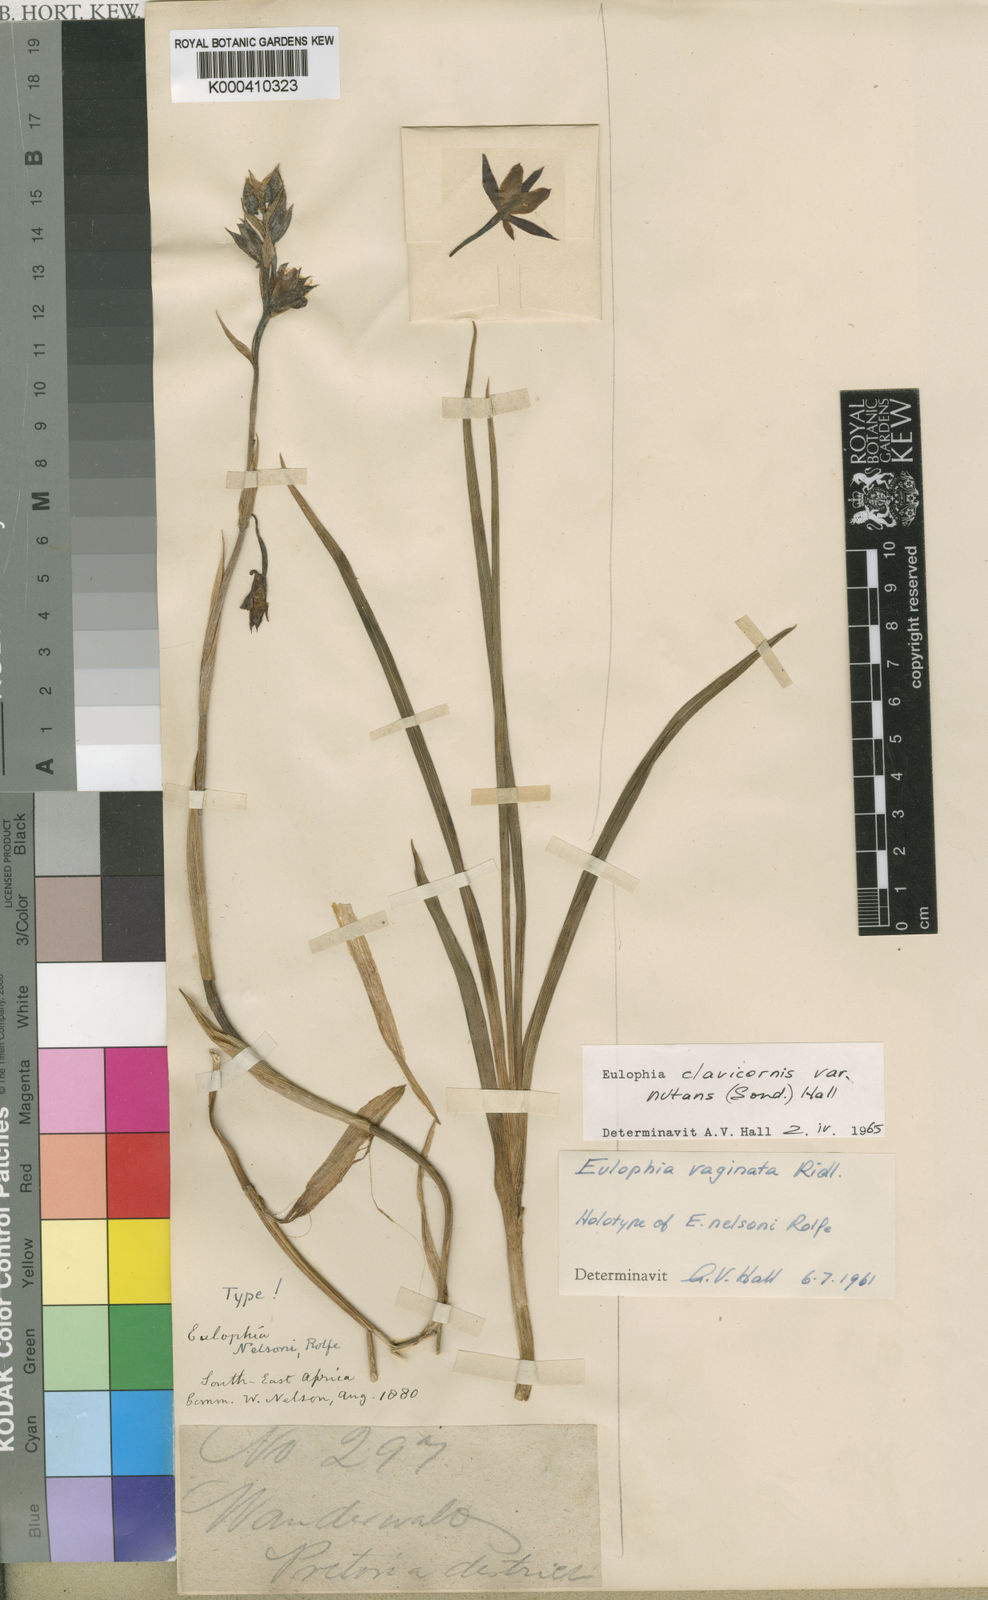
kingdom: Plantae
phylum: Tracheophyta
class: Liliopsida
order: Asparagales
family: Orchidaceae
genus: Eulophia
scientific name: Eulophia hians
